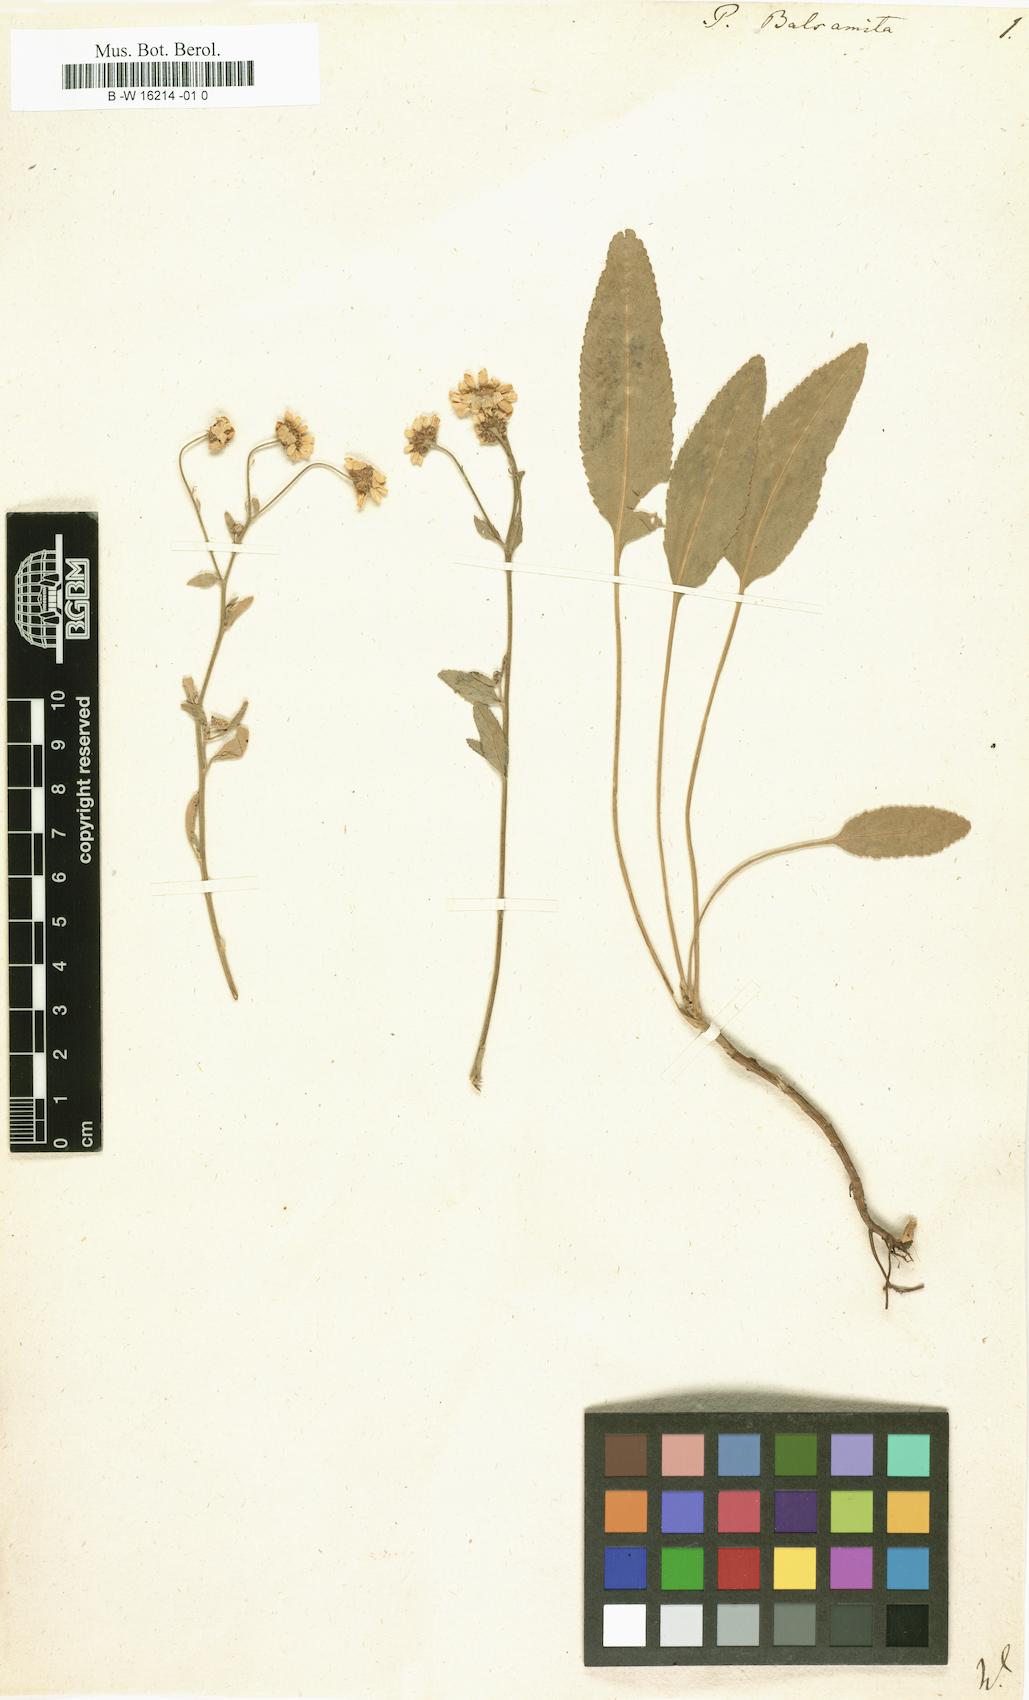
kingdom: Plantae
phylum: Tracheophyta
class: Magnoliopsida
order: Asterales
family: Asteraceae
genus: Tanacetum
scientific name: Tanacetum balsamita
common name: Costmary
